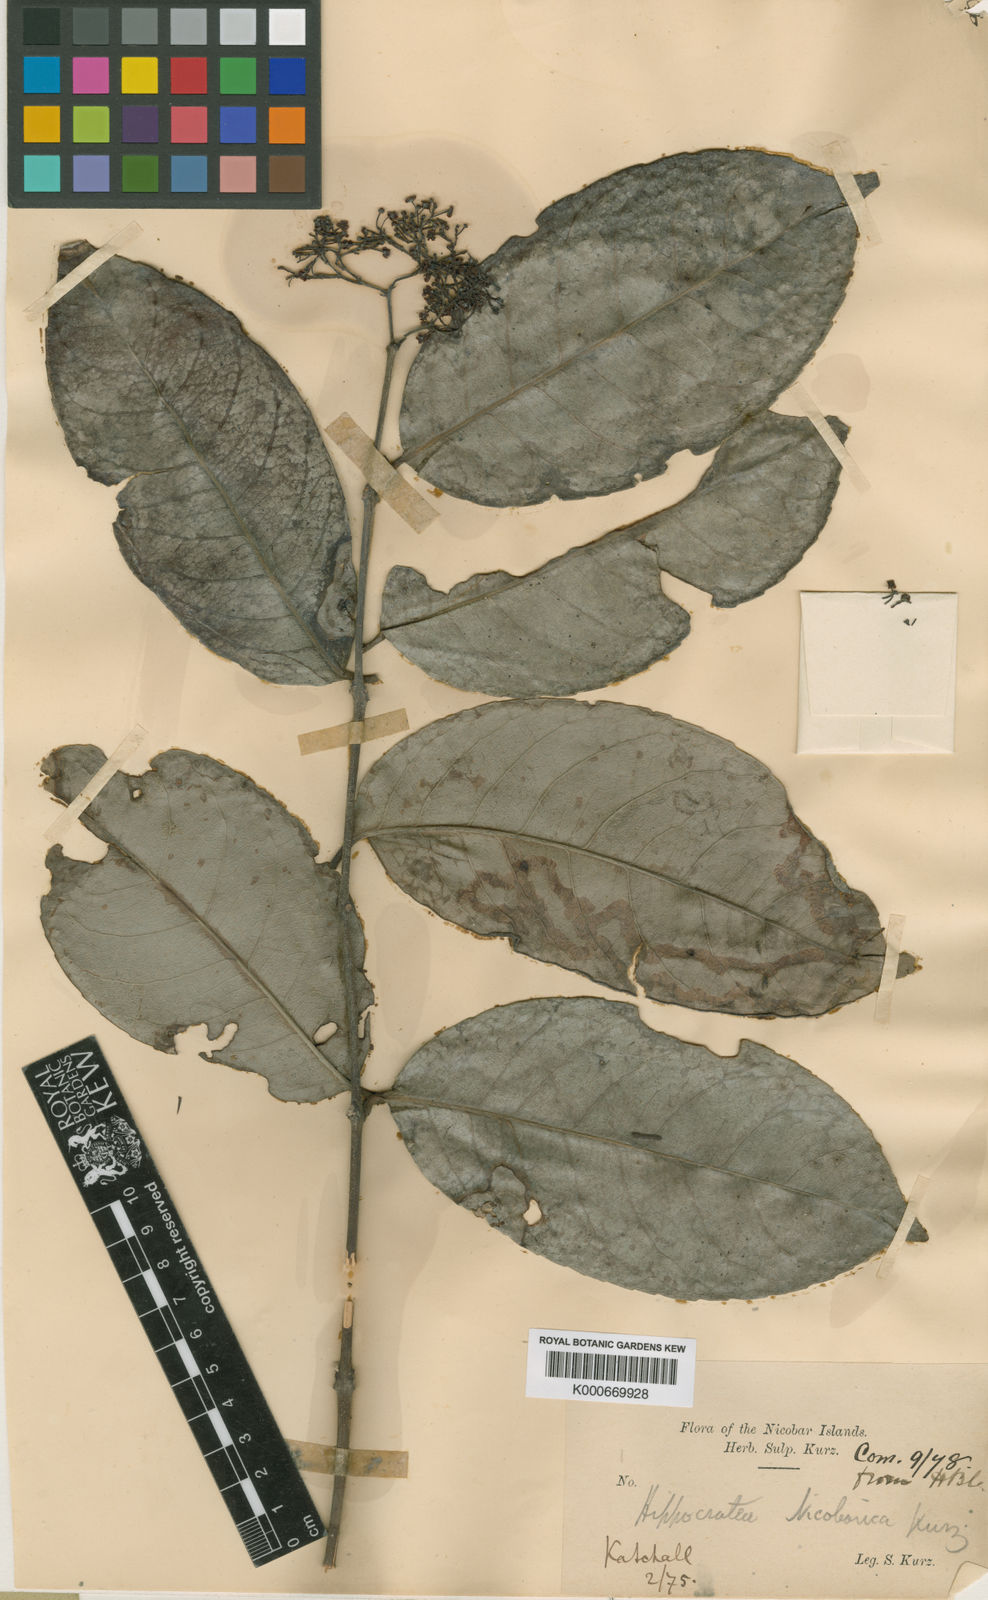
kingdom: Plantae
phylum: Tracheophyta
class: Magnoliopsida
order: Celastrales
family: Celastraceae
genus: Loeseneriella
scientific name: Loeseneriella nicobarica
